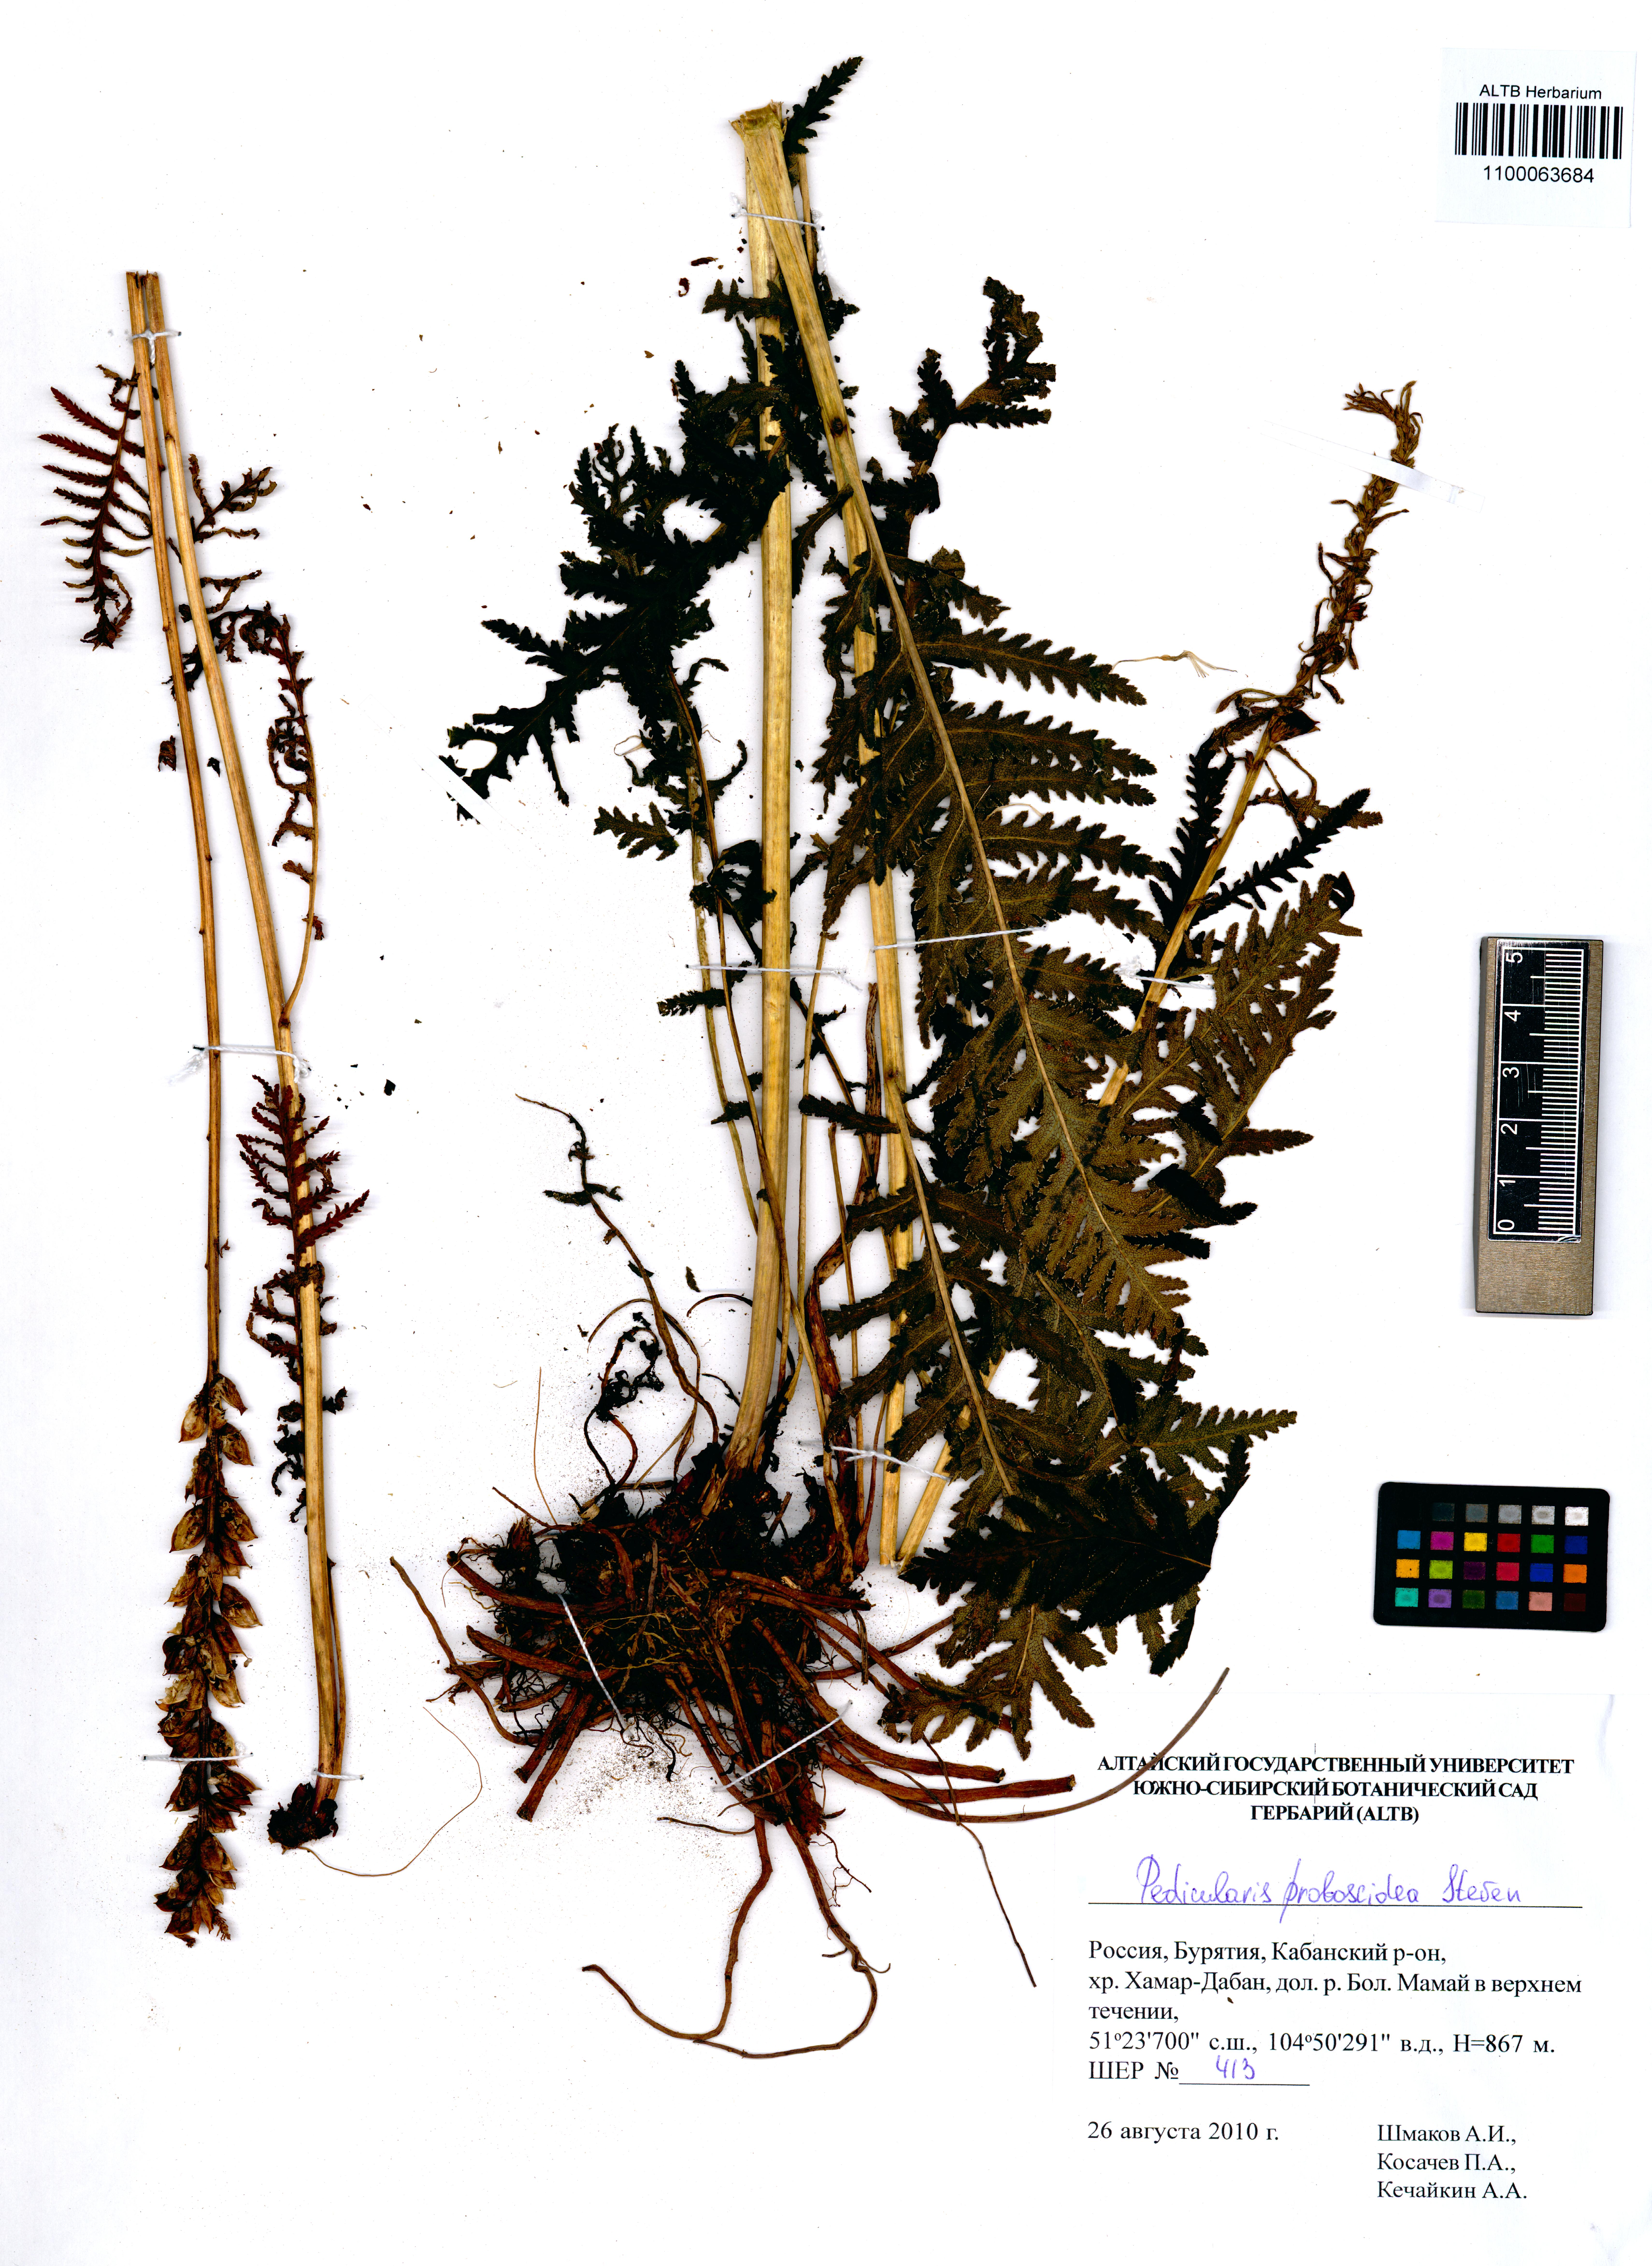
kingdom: Plantae
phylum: Tracheophyta
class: Magnoliopsida
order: Lamiales
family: Orobanchaceae
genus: Pedicularis
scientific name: Pedicularis cenisia
